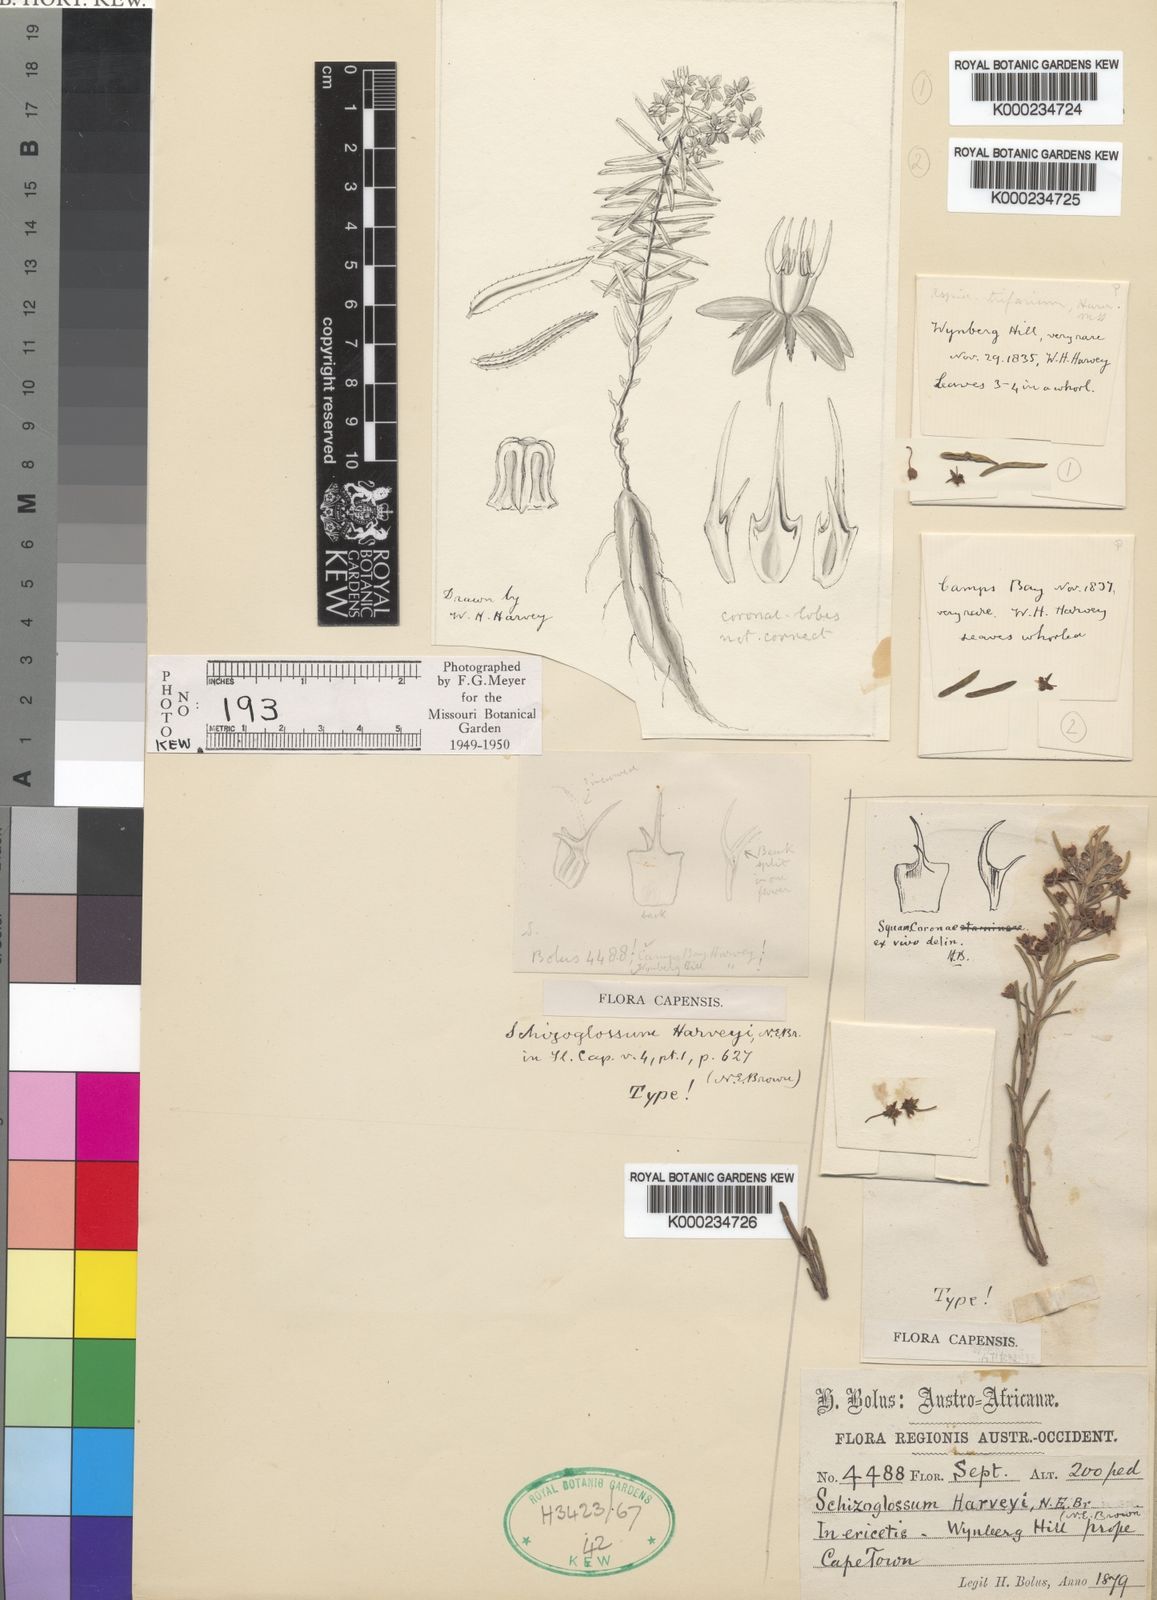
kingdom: Plantae
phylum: Tracheophyta
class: Magnoliopsida
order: Gentianales
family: Apocynaceae
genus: Aspidoglossum
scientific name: Aspidoglossum heterophyllum
